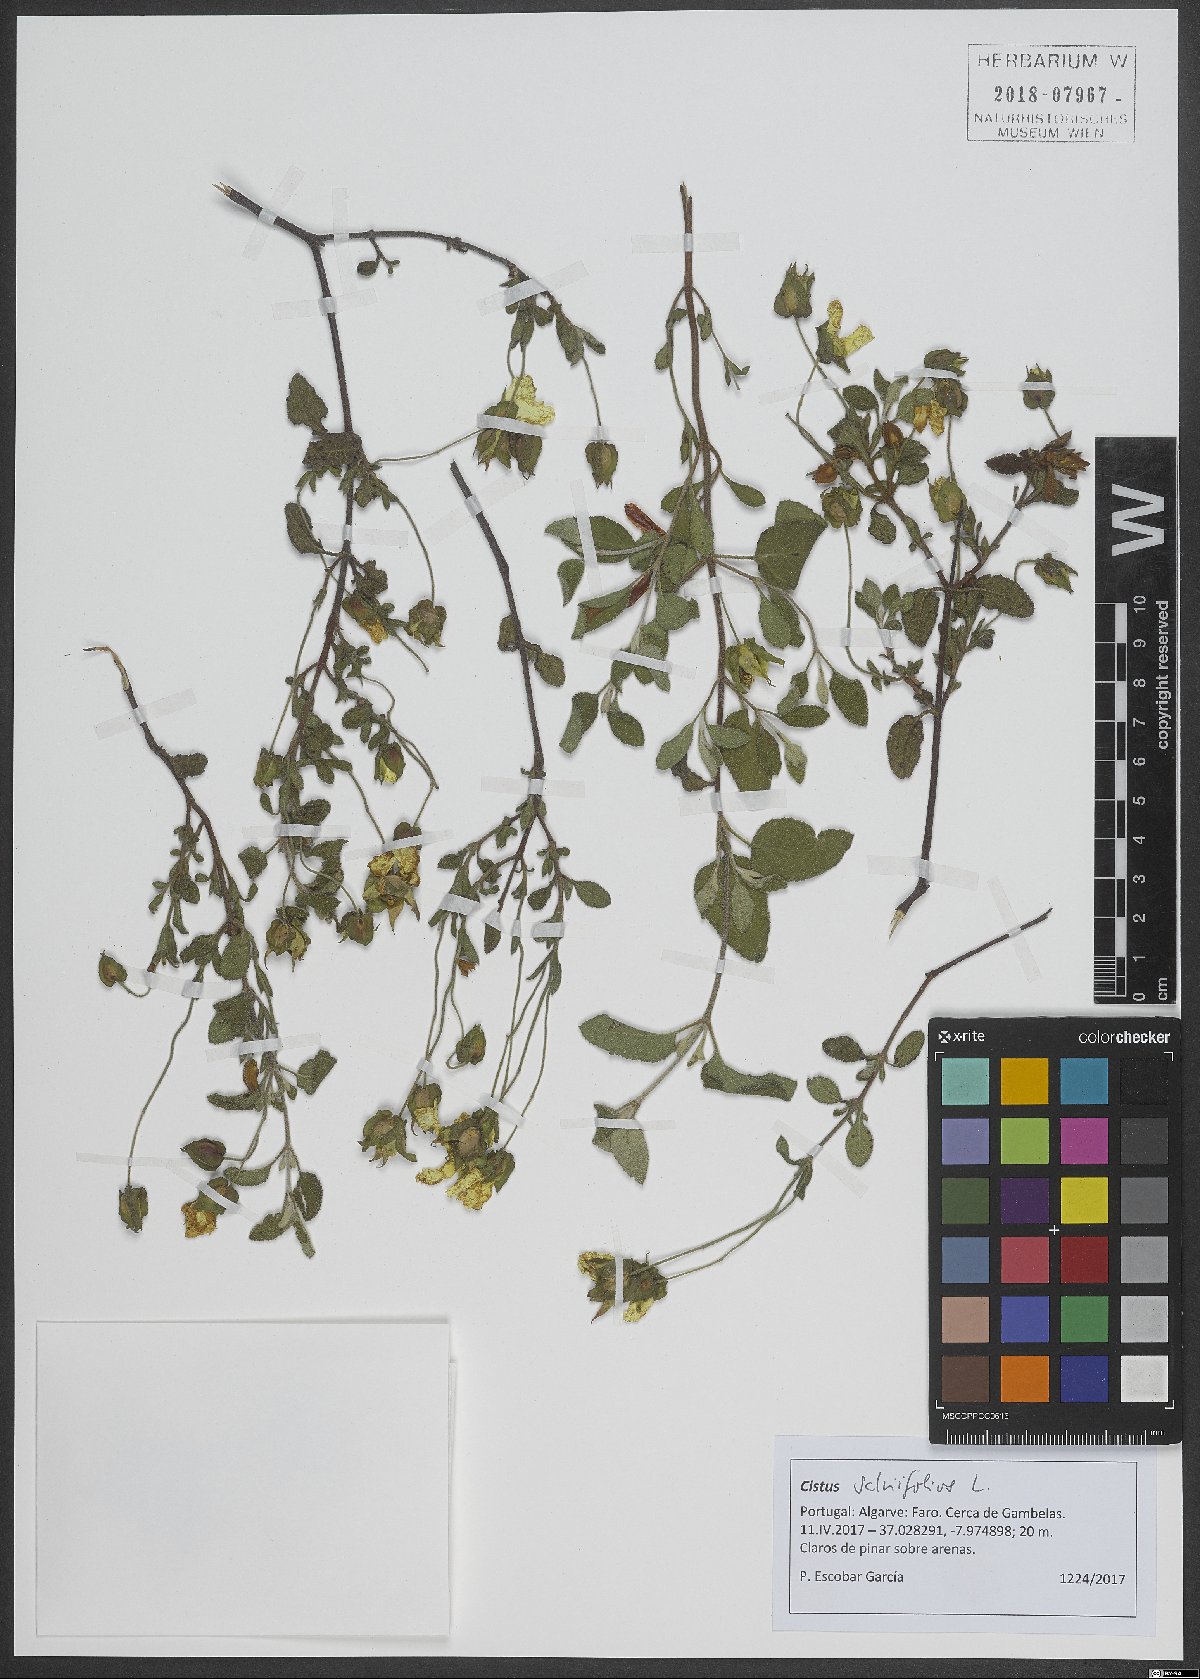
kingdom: Plantae
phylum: Tracheophyta
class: Magnoliopsida
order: Malvales
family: Cistaceae
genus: Cistus
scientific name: Cistus salviifolius
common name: Salvia cistus
